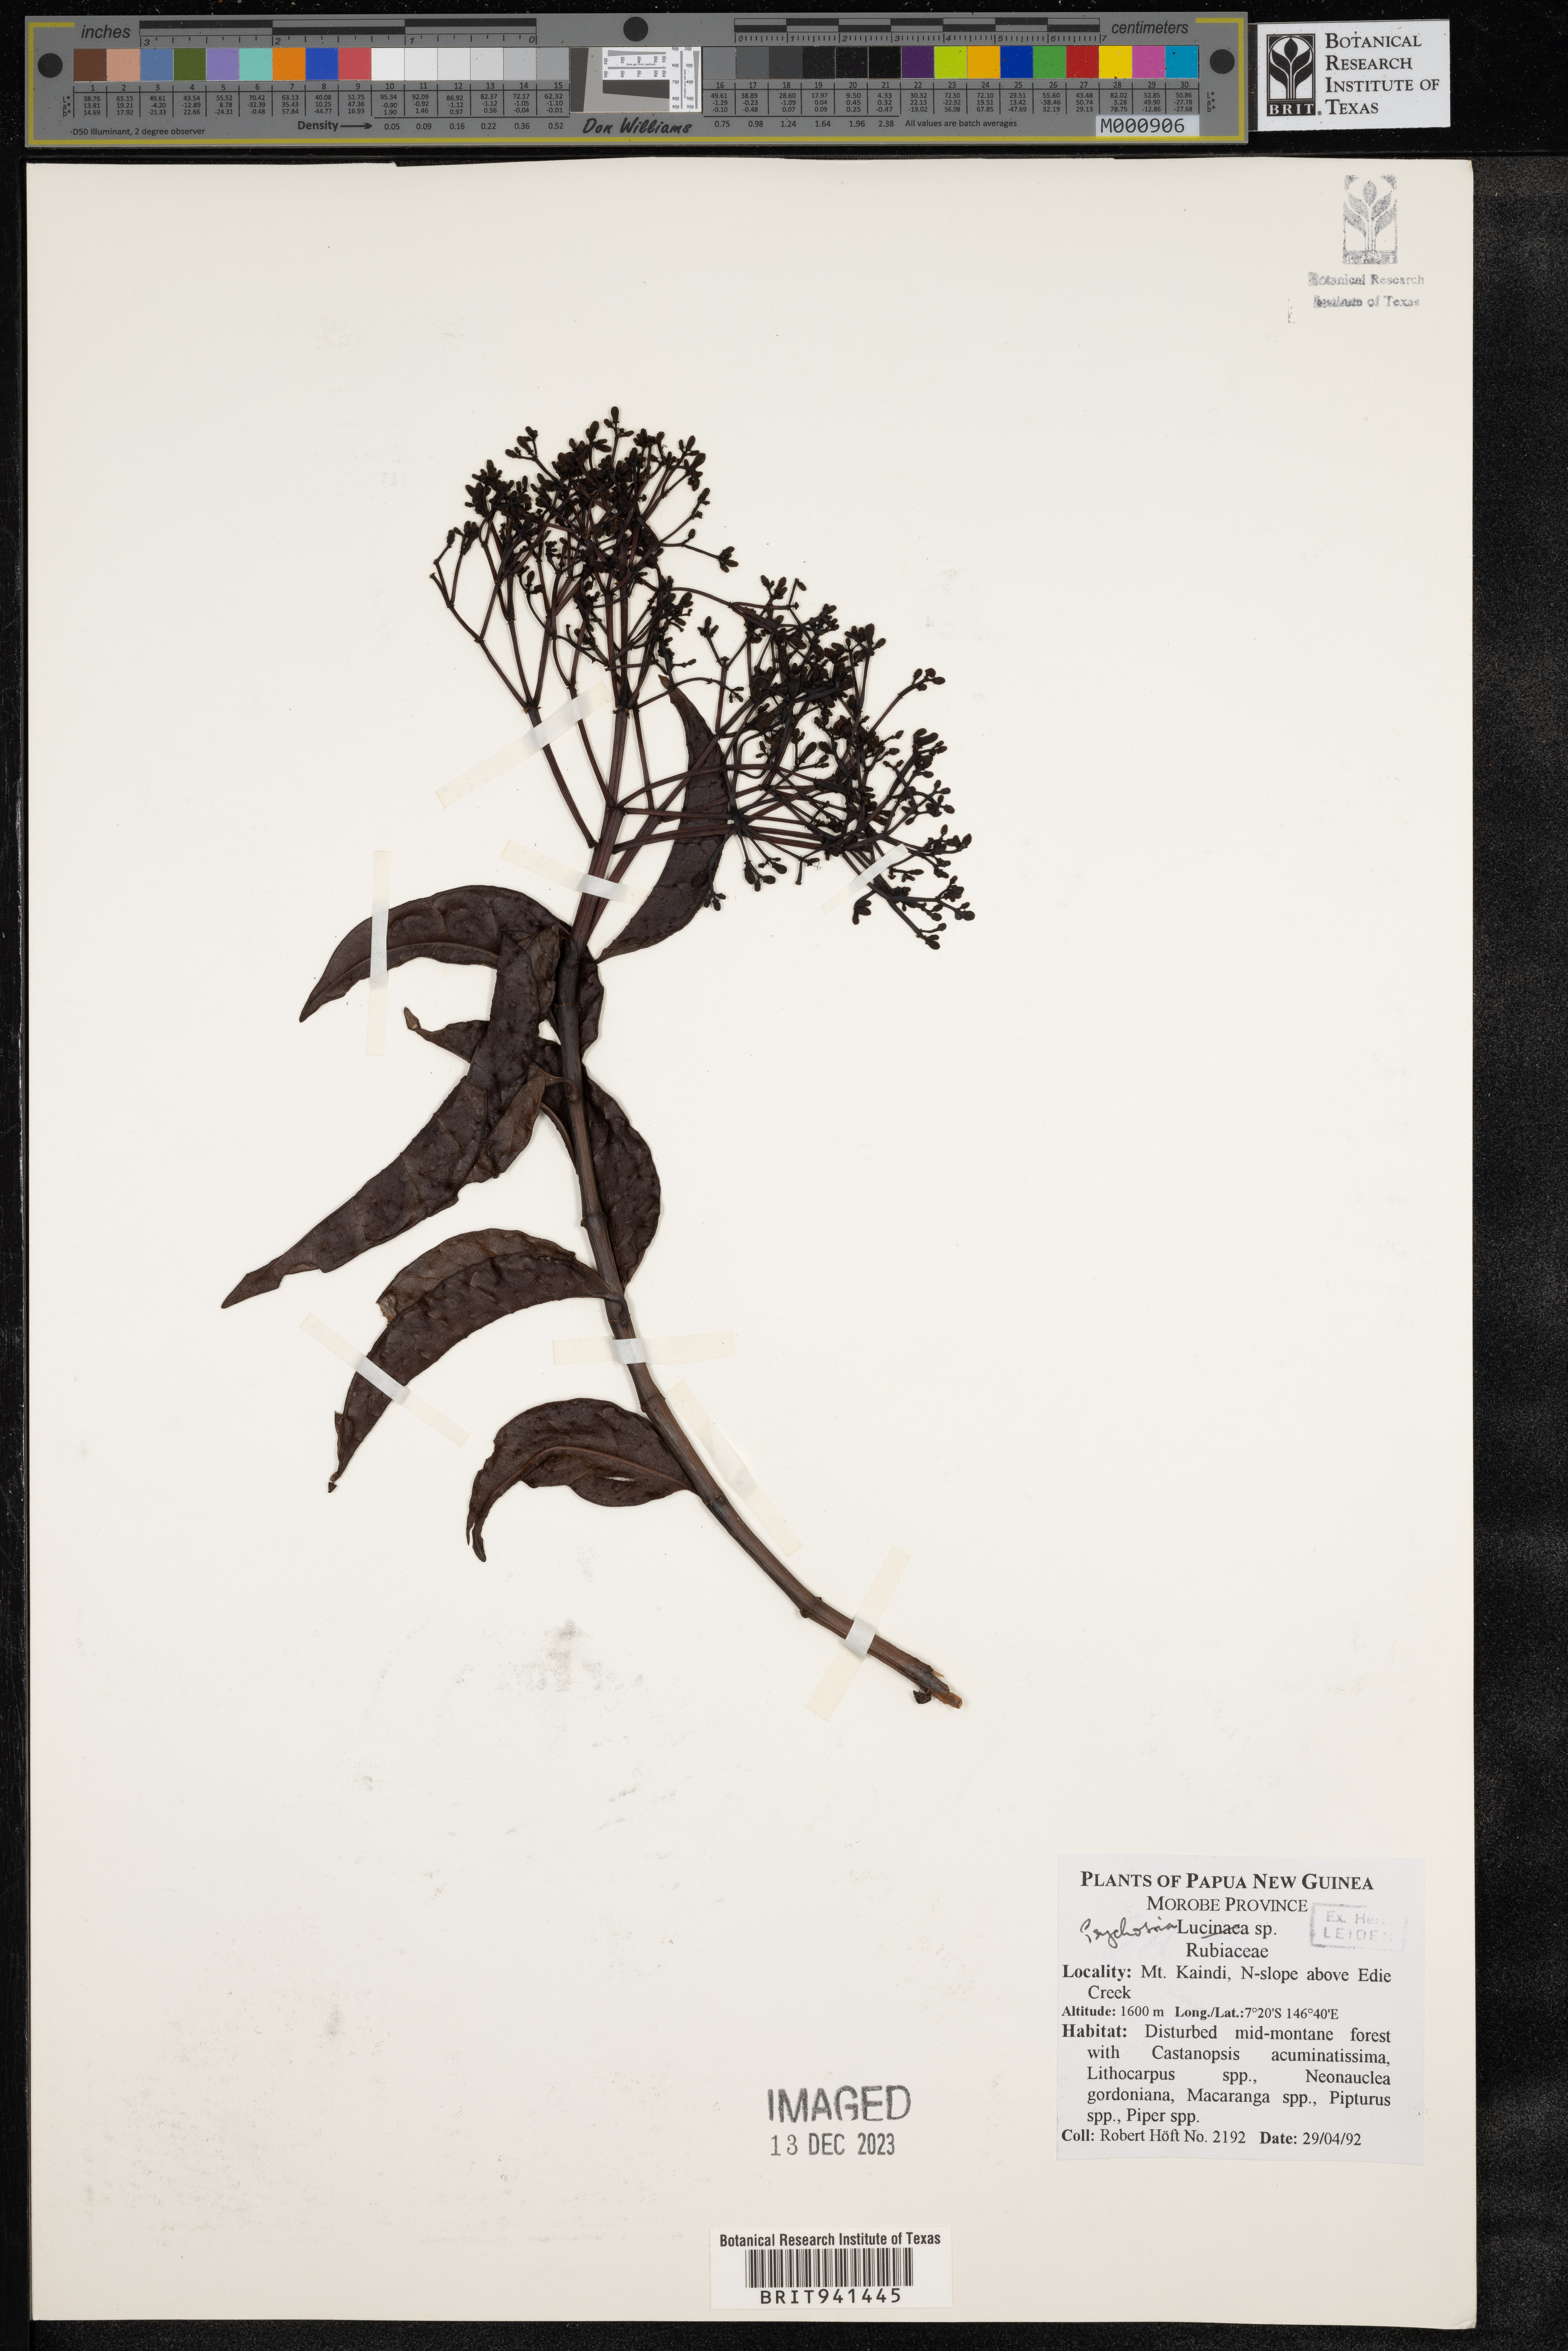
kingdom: Plantae
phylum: Tracheophyta
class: Magnoliopsida
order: Gentianales
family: Rubiaceae
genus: Psychotria
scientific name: Psychotria
